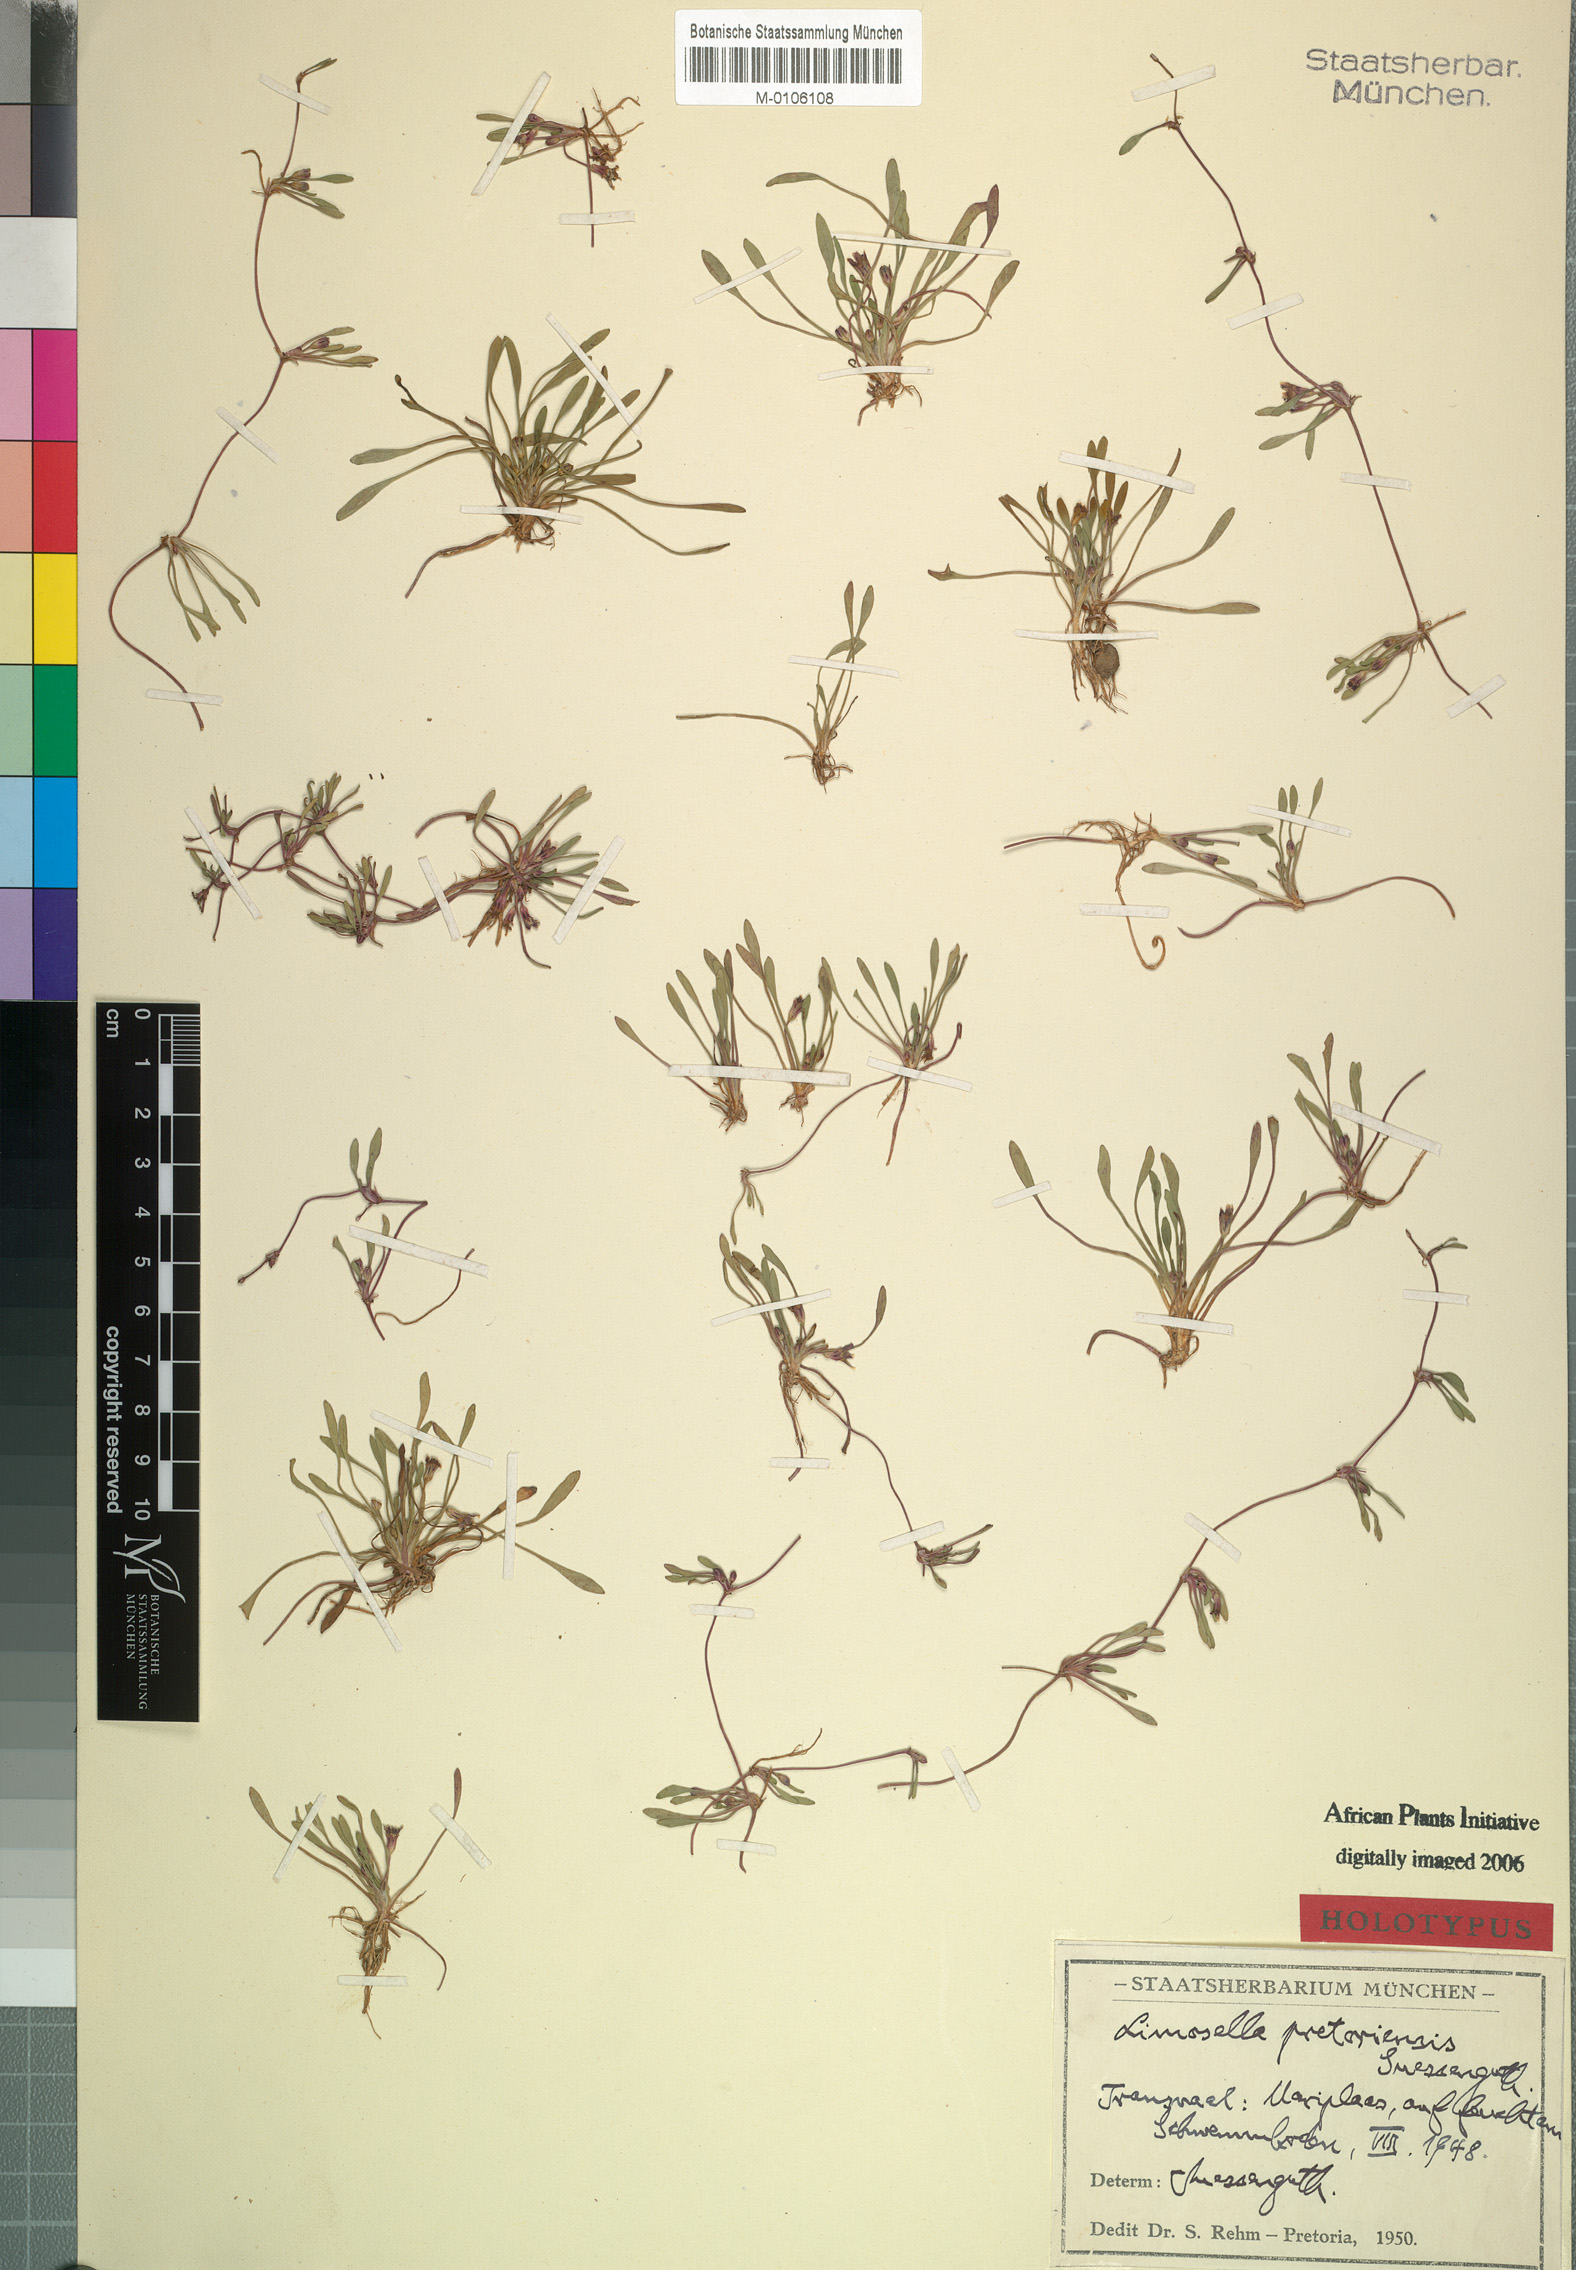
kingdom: Plantae
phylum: Tracheophyta
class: Magnoliopsida
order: Lamiales
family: Scrophulariaceae
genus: Limosella
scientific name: Limosella pretoriensis
